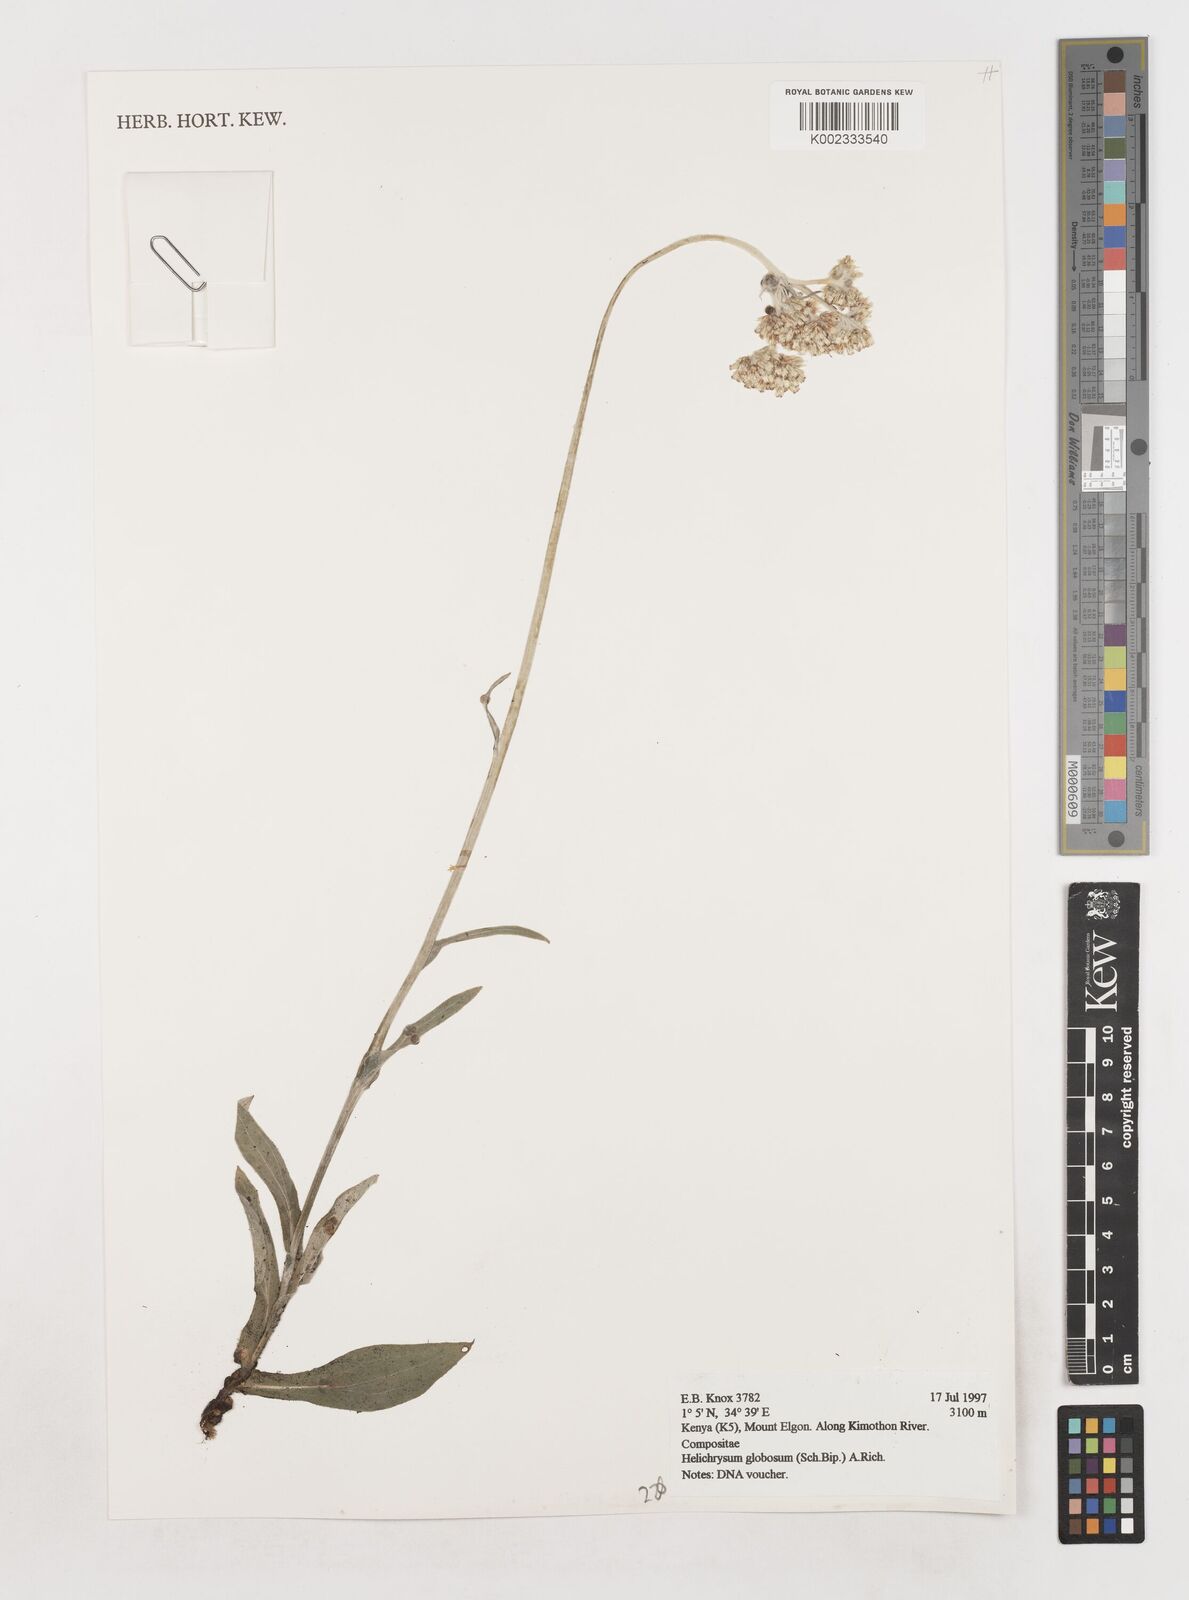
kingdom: Plantae
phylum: Tracheophyta
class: Magnoliopsida
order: Asterales
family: Asteraceae
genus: Helichrysum
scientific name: Helichrysum globosum
